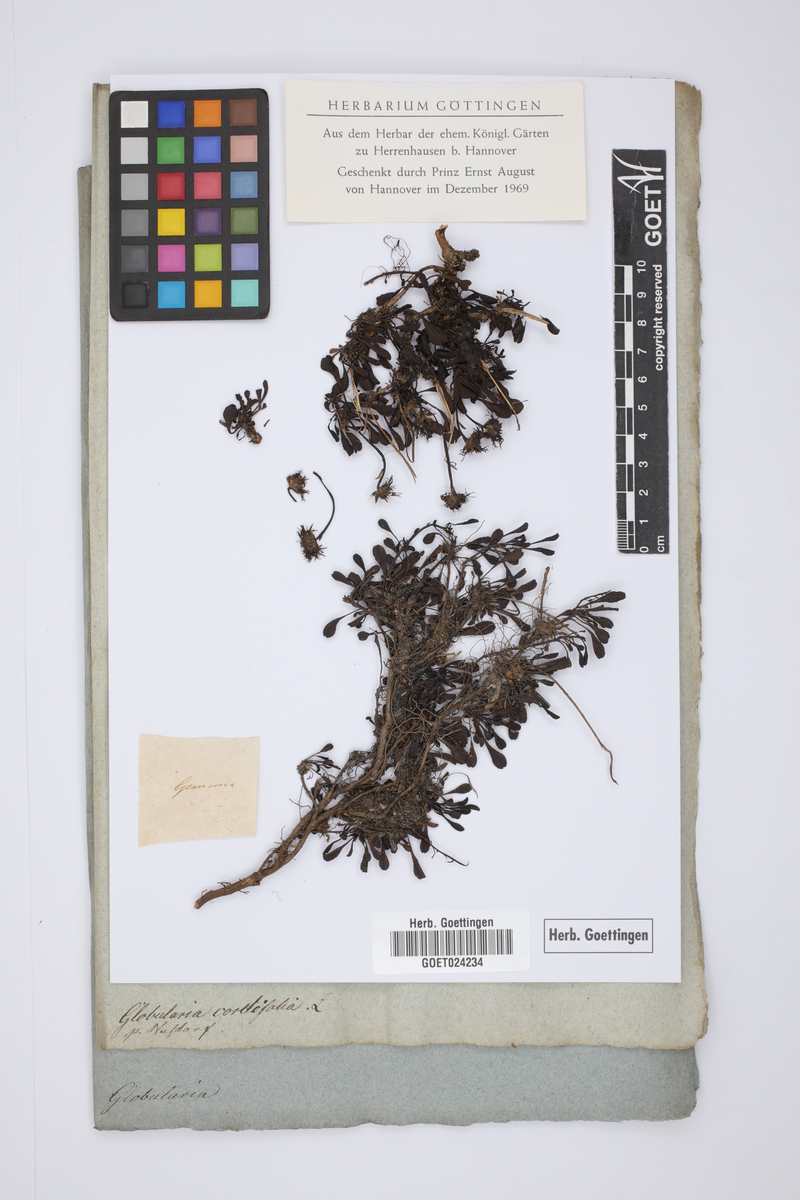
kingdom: Plantae
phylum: Tracheophyta
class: Magnoliopsida
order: Lamiales
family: Plantaginaceae
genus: Globularia
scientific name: Globularia cordifolia
